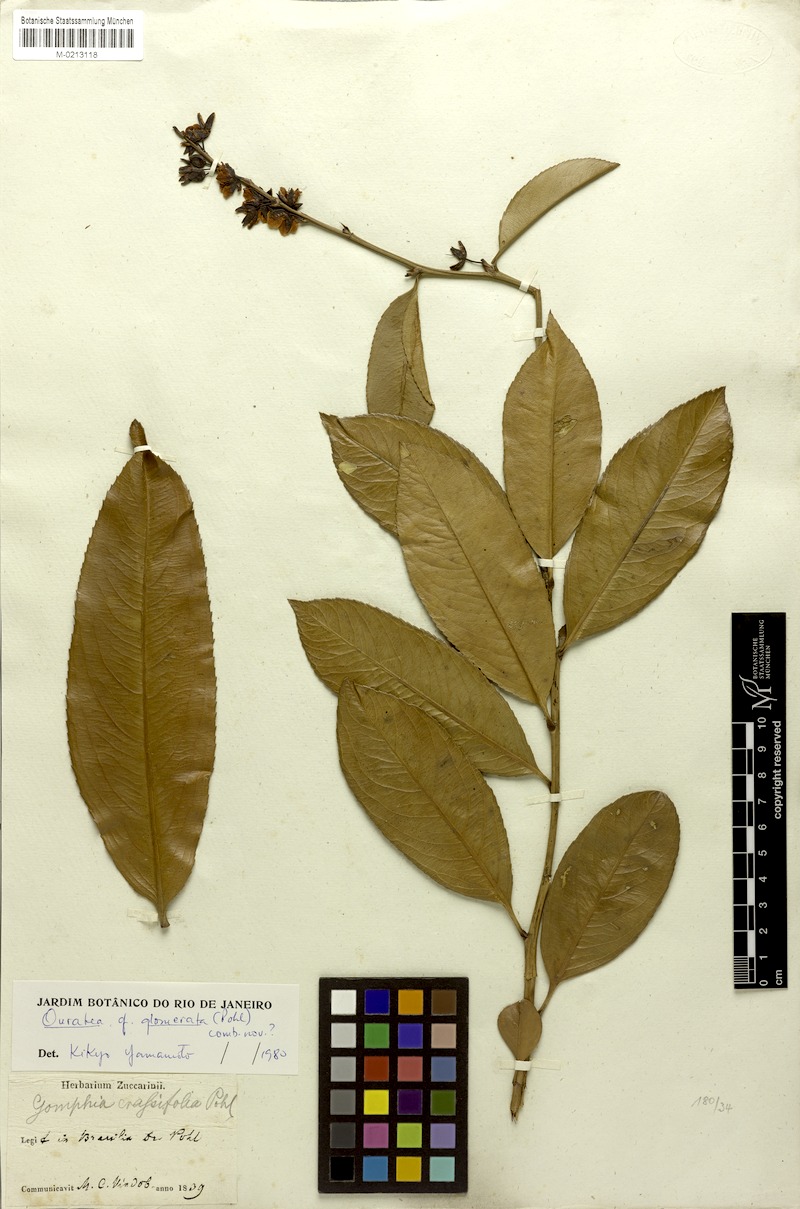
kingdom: Plantae
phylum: Tracheophyta
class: Magnoliopsida
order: Malpighiales
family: Ochnaceae
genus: Ouratea
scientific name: Ouratea crassifolia
